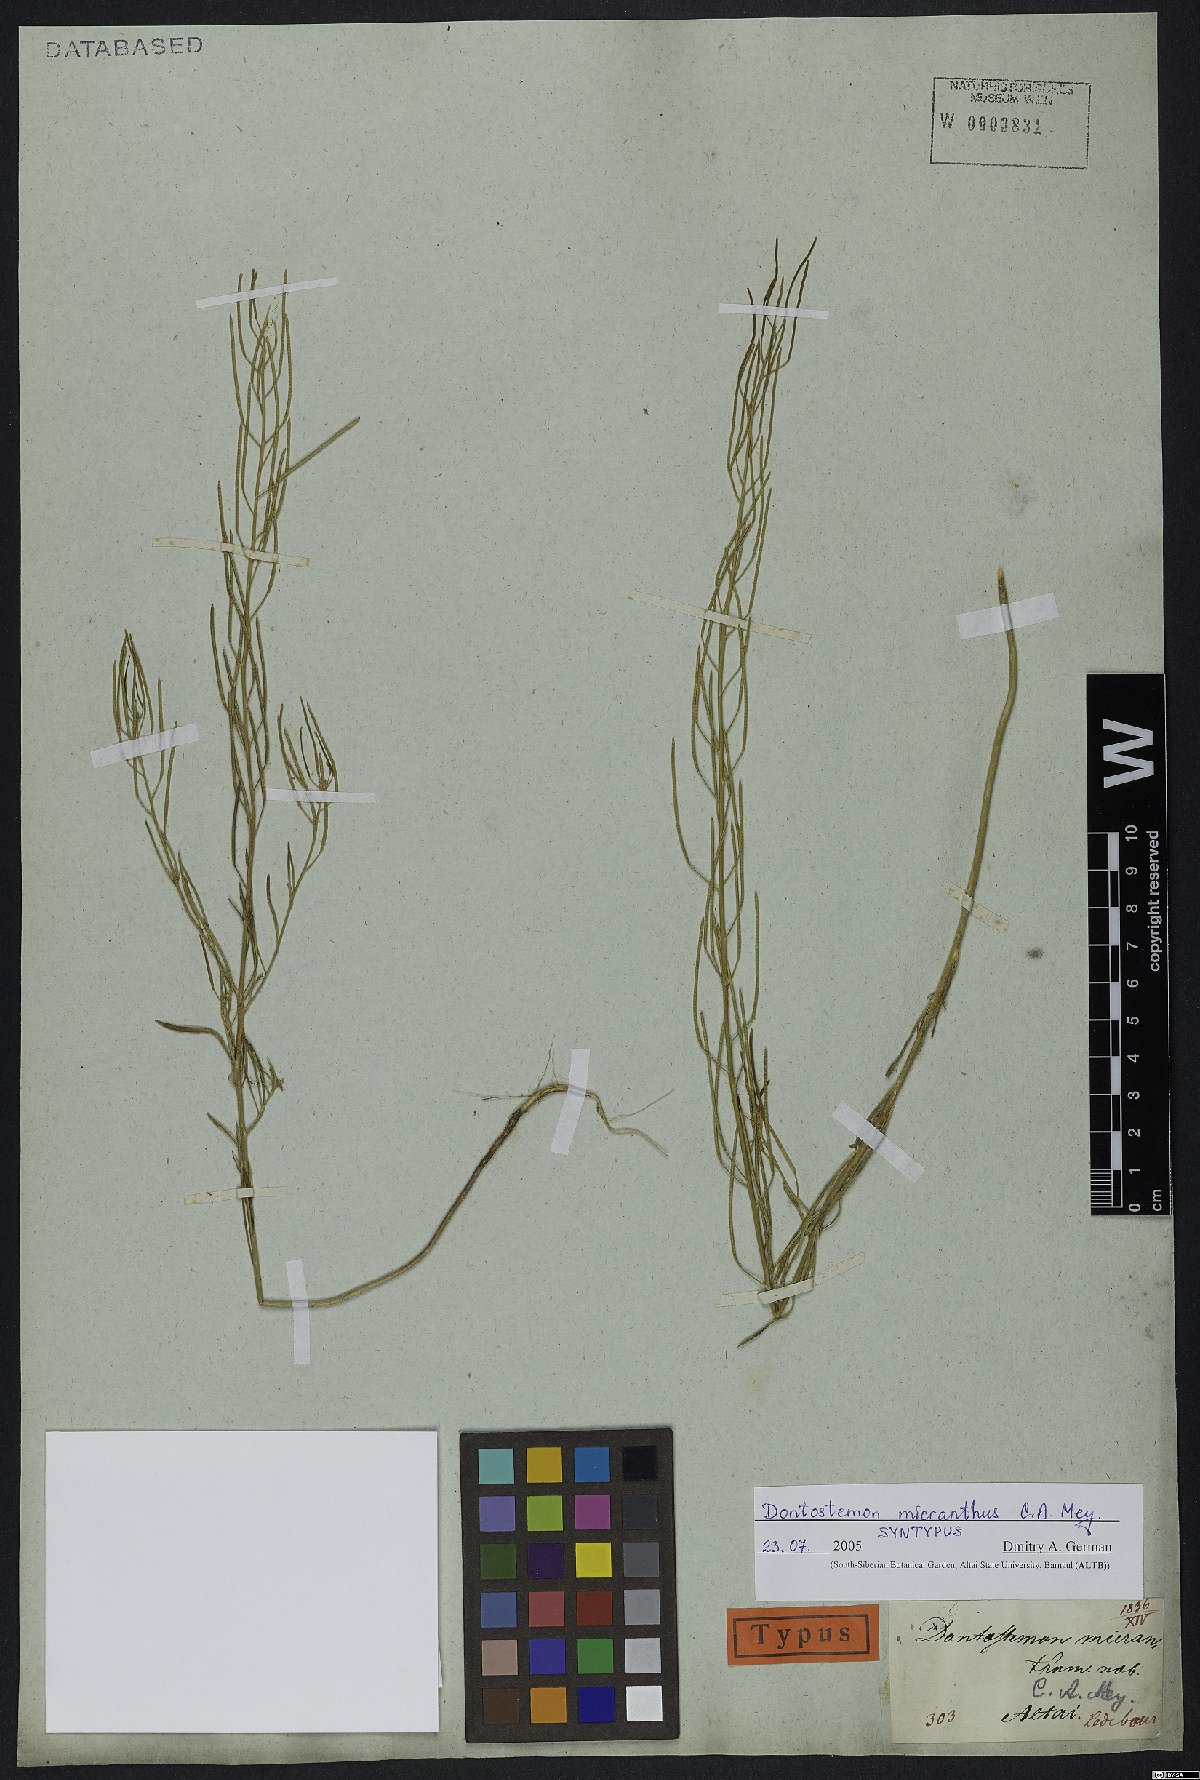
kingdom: Plantae
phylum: Tracheophyta
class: Magnoliopsida
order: Brassicales
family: Brassicaceae
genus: Dontostemon
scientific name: Dontostemon micranthus
